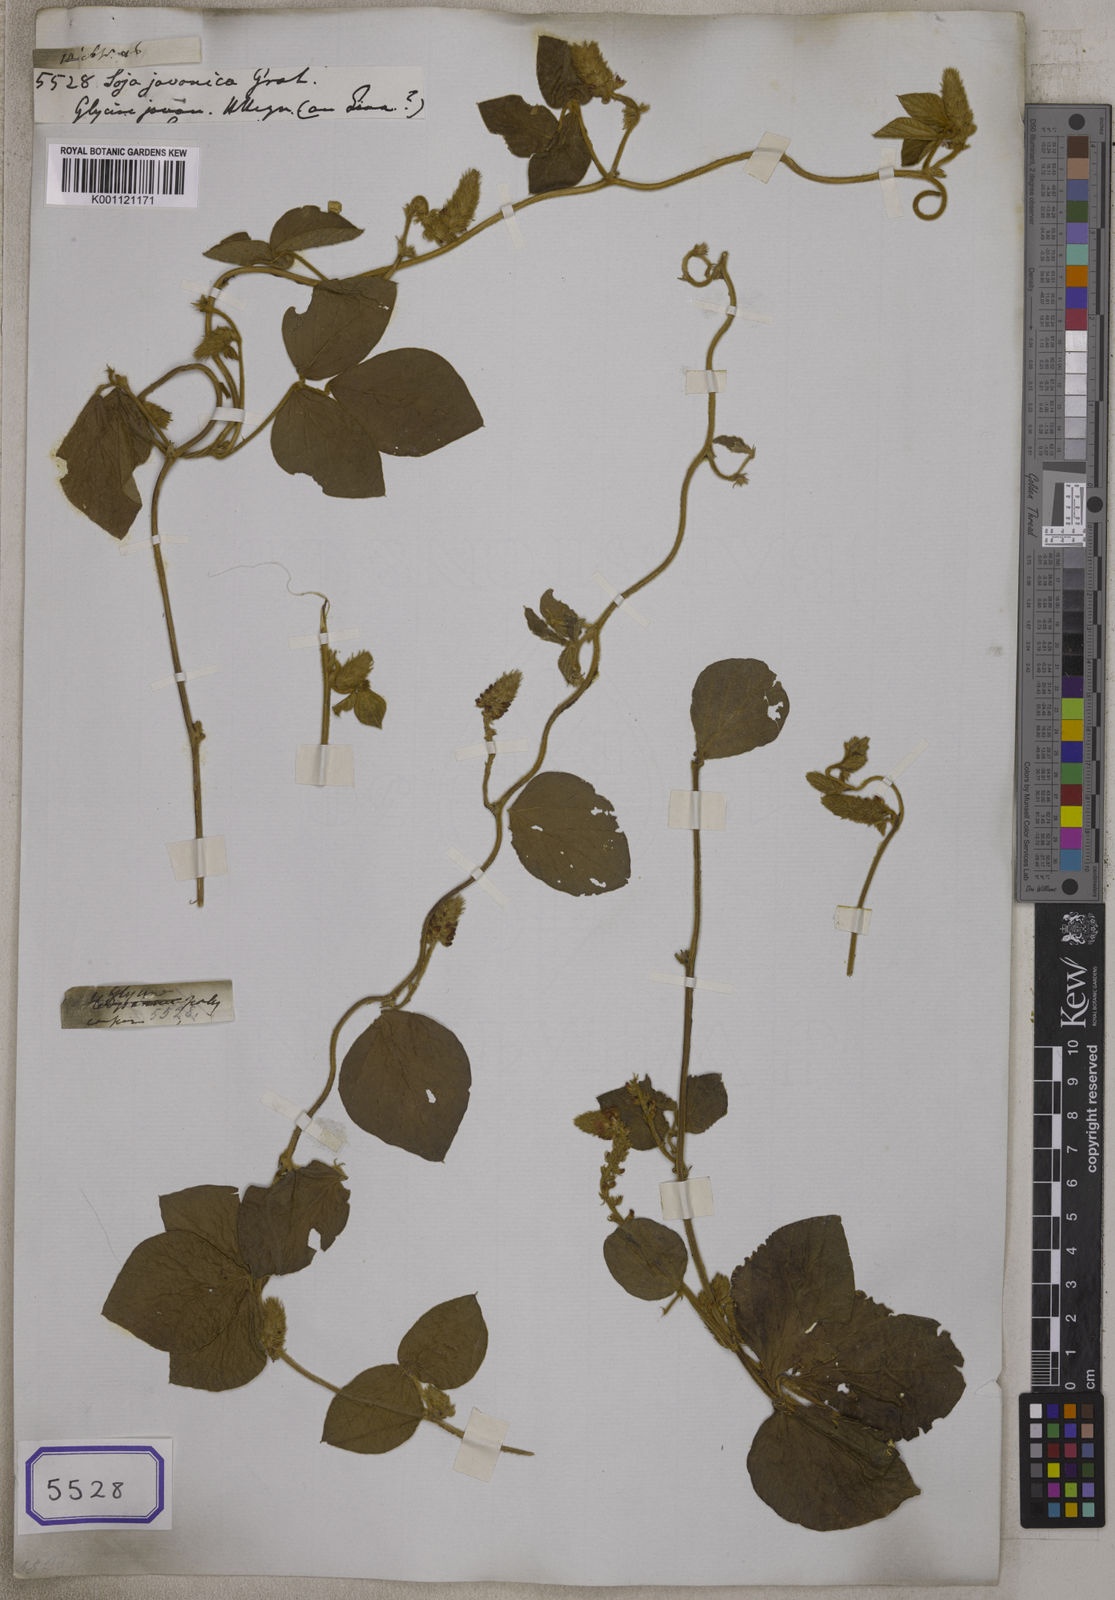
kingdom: Plantae
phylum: Tracheophyta
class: Magnoliopsida
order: Fabales
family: Fabaceae
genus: Pueraria
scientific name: Pueraria montana
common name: Kudzu
